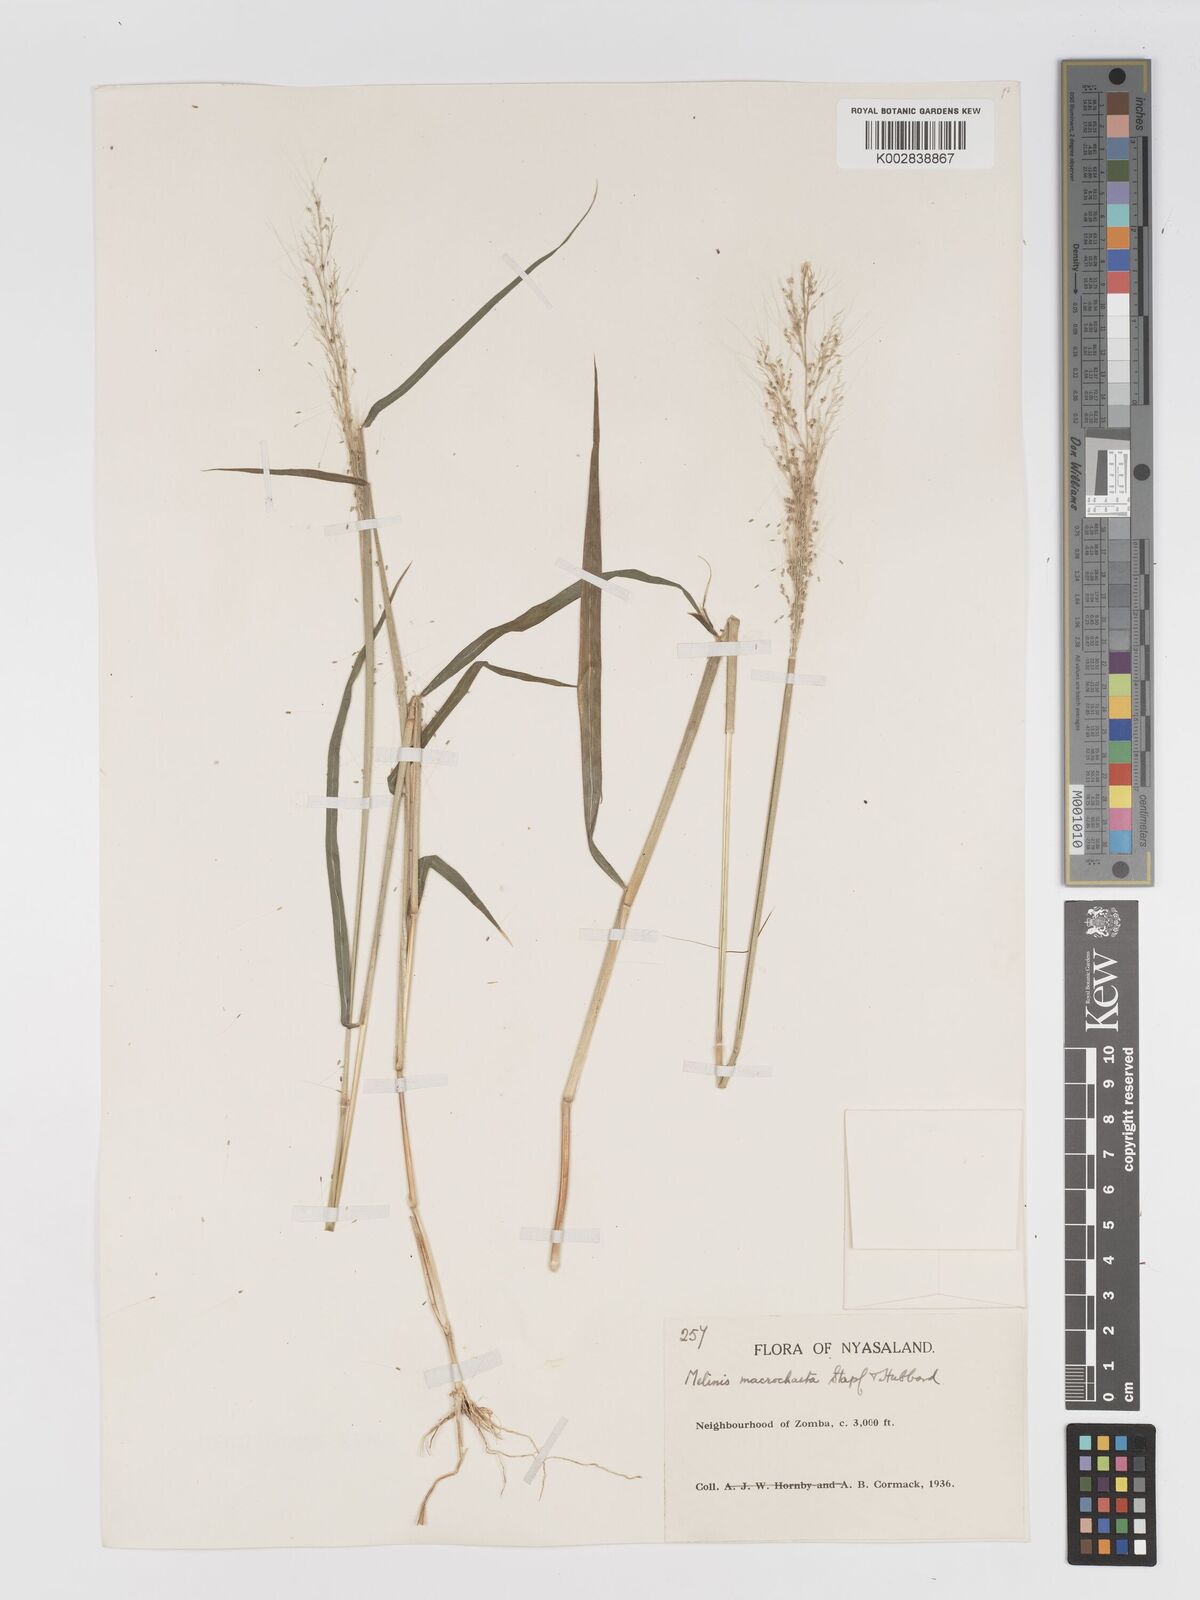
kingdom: Plantae
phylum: Tracheophyta
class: Liliopsida
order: Poales
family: Poaceae
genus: Melinis
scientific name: Melinis macrochaeta
